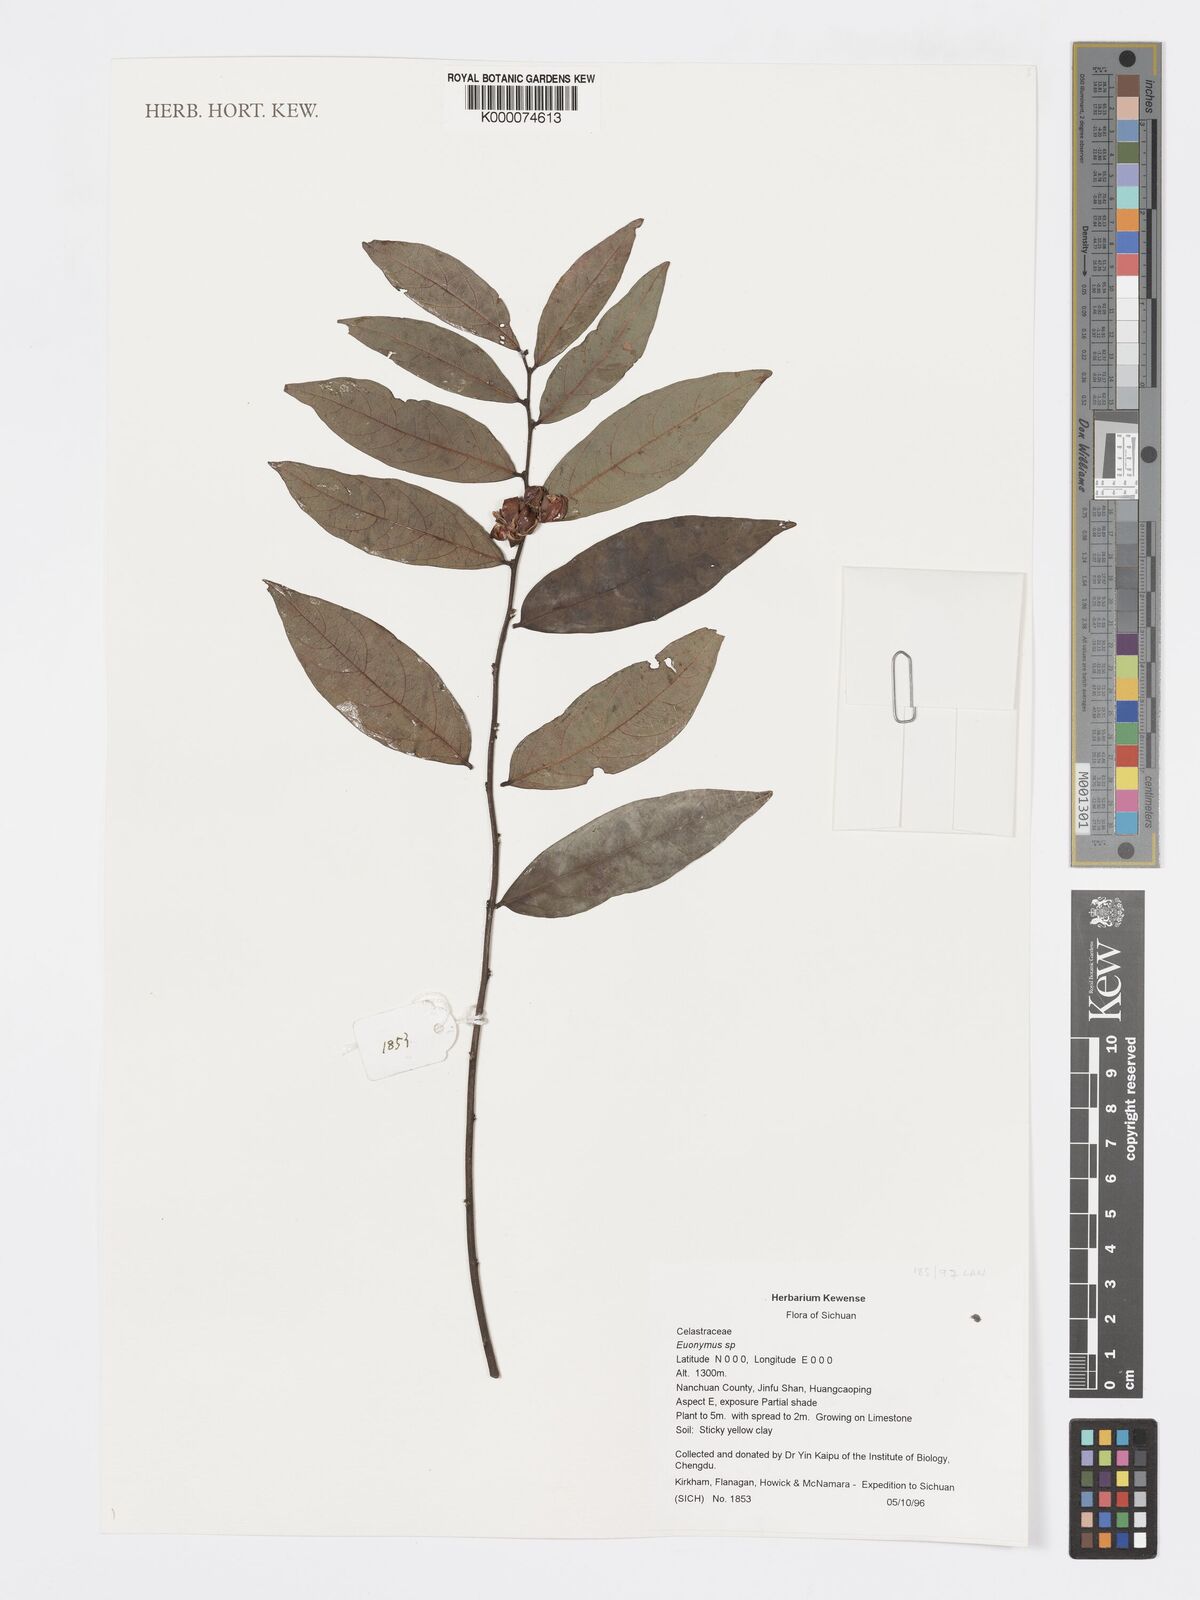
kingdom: Plantae
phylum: Tracheophyta
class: Magnoliopsida
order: Celastrales
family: Celastraceae
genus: Euonymus
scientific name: Euonymus
